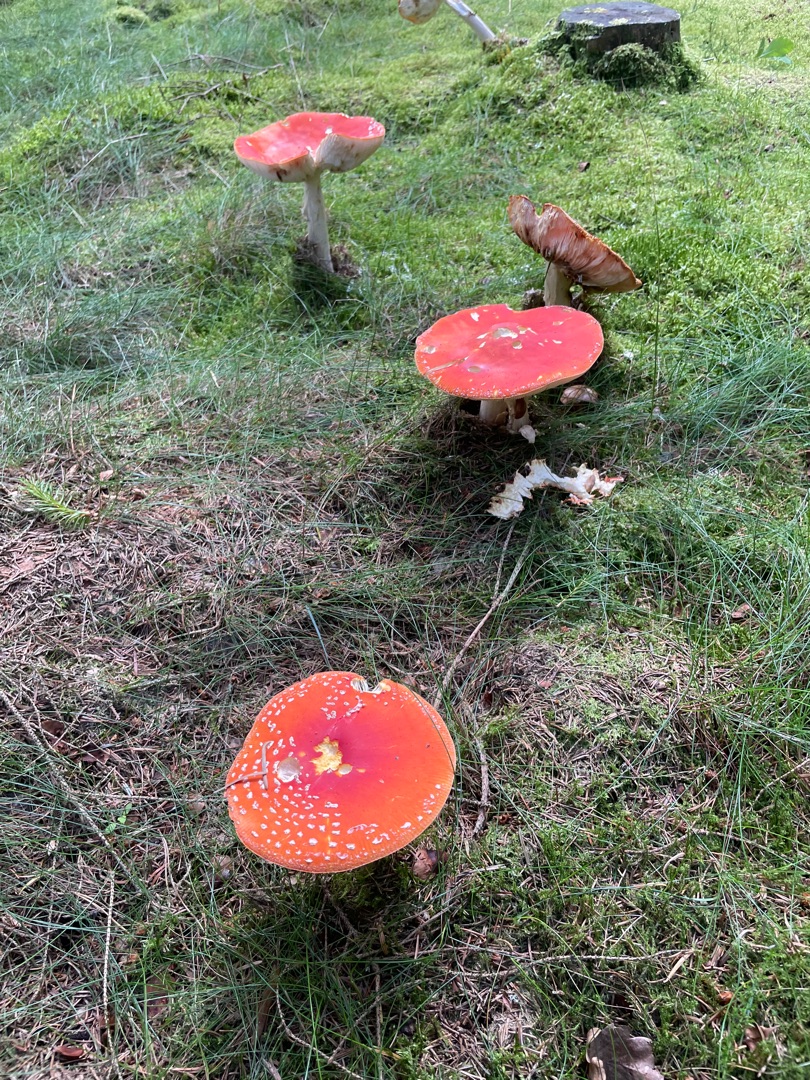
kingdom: Fungi
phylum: Basidiomycota
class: Agaricomycetes
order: Agaricales
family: Amanitaceae
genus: Amanita
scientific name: Amanita muscaria
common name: Rød fluesvamp
